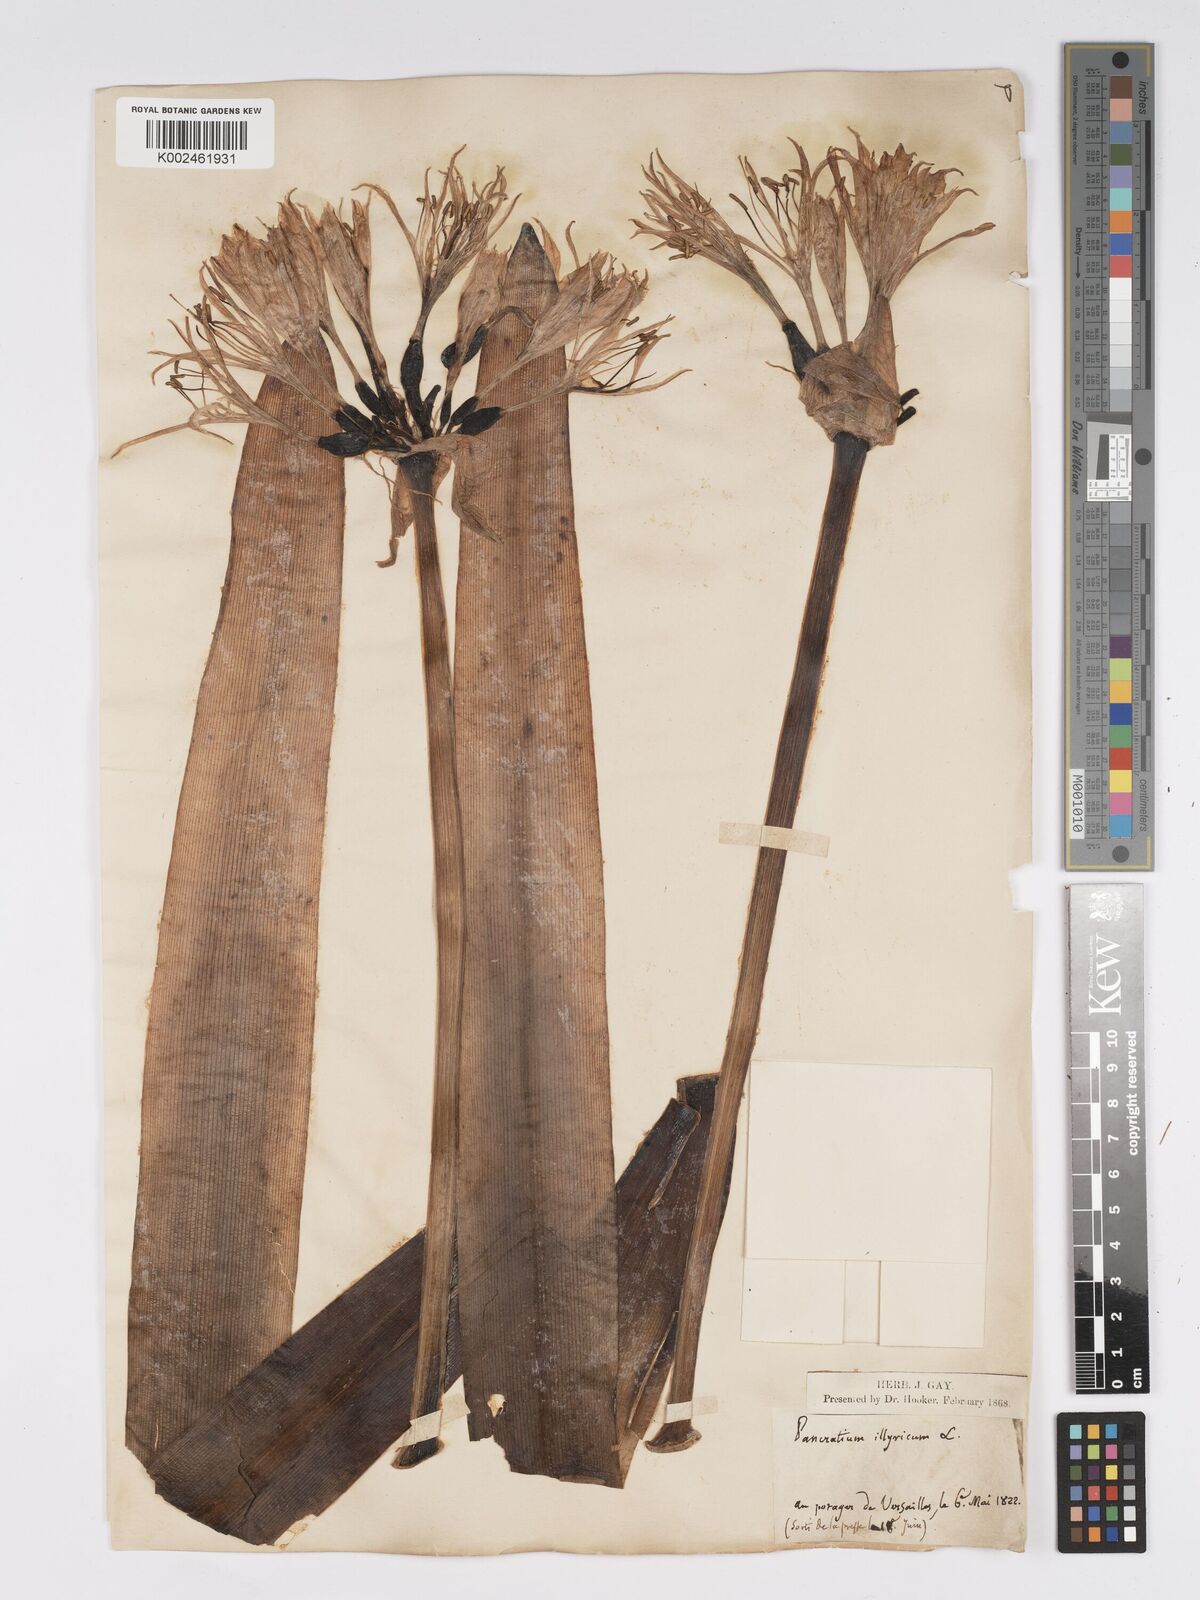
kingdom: Plantae
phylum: Tracheophyta
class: Liliopsida
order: Asparagales
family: Amaryllidaceae
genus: Pancratium
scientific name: Pancratium illyricum
